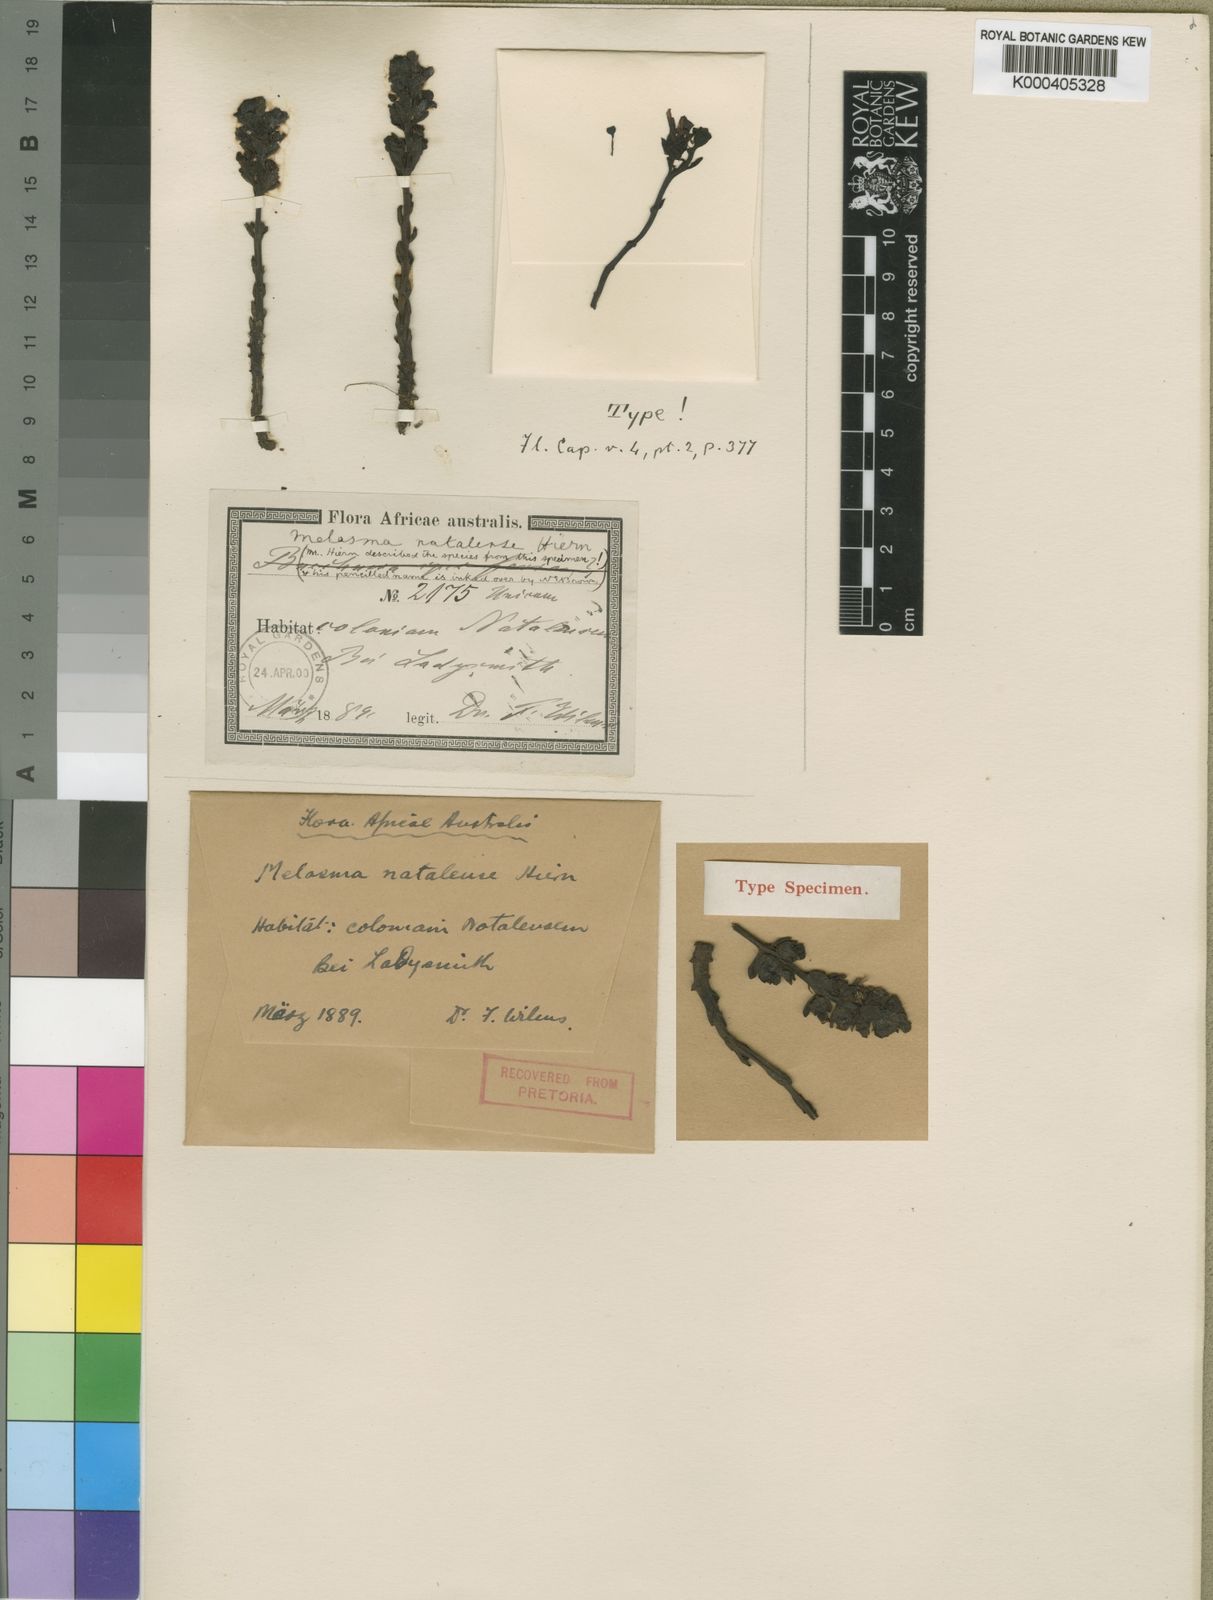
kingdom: Plantae
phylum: Tracheophyta
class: Magnoliopsida
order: Lamiales
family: Orobanchaceae
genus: Alectra
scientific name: Alectra natalensis
